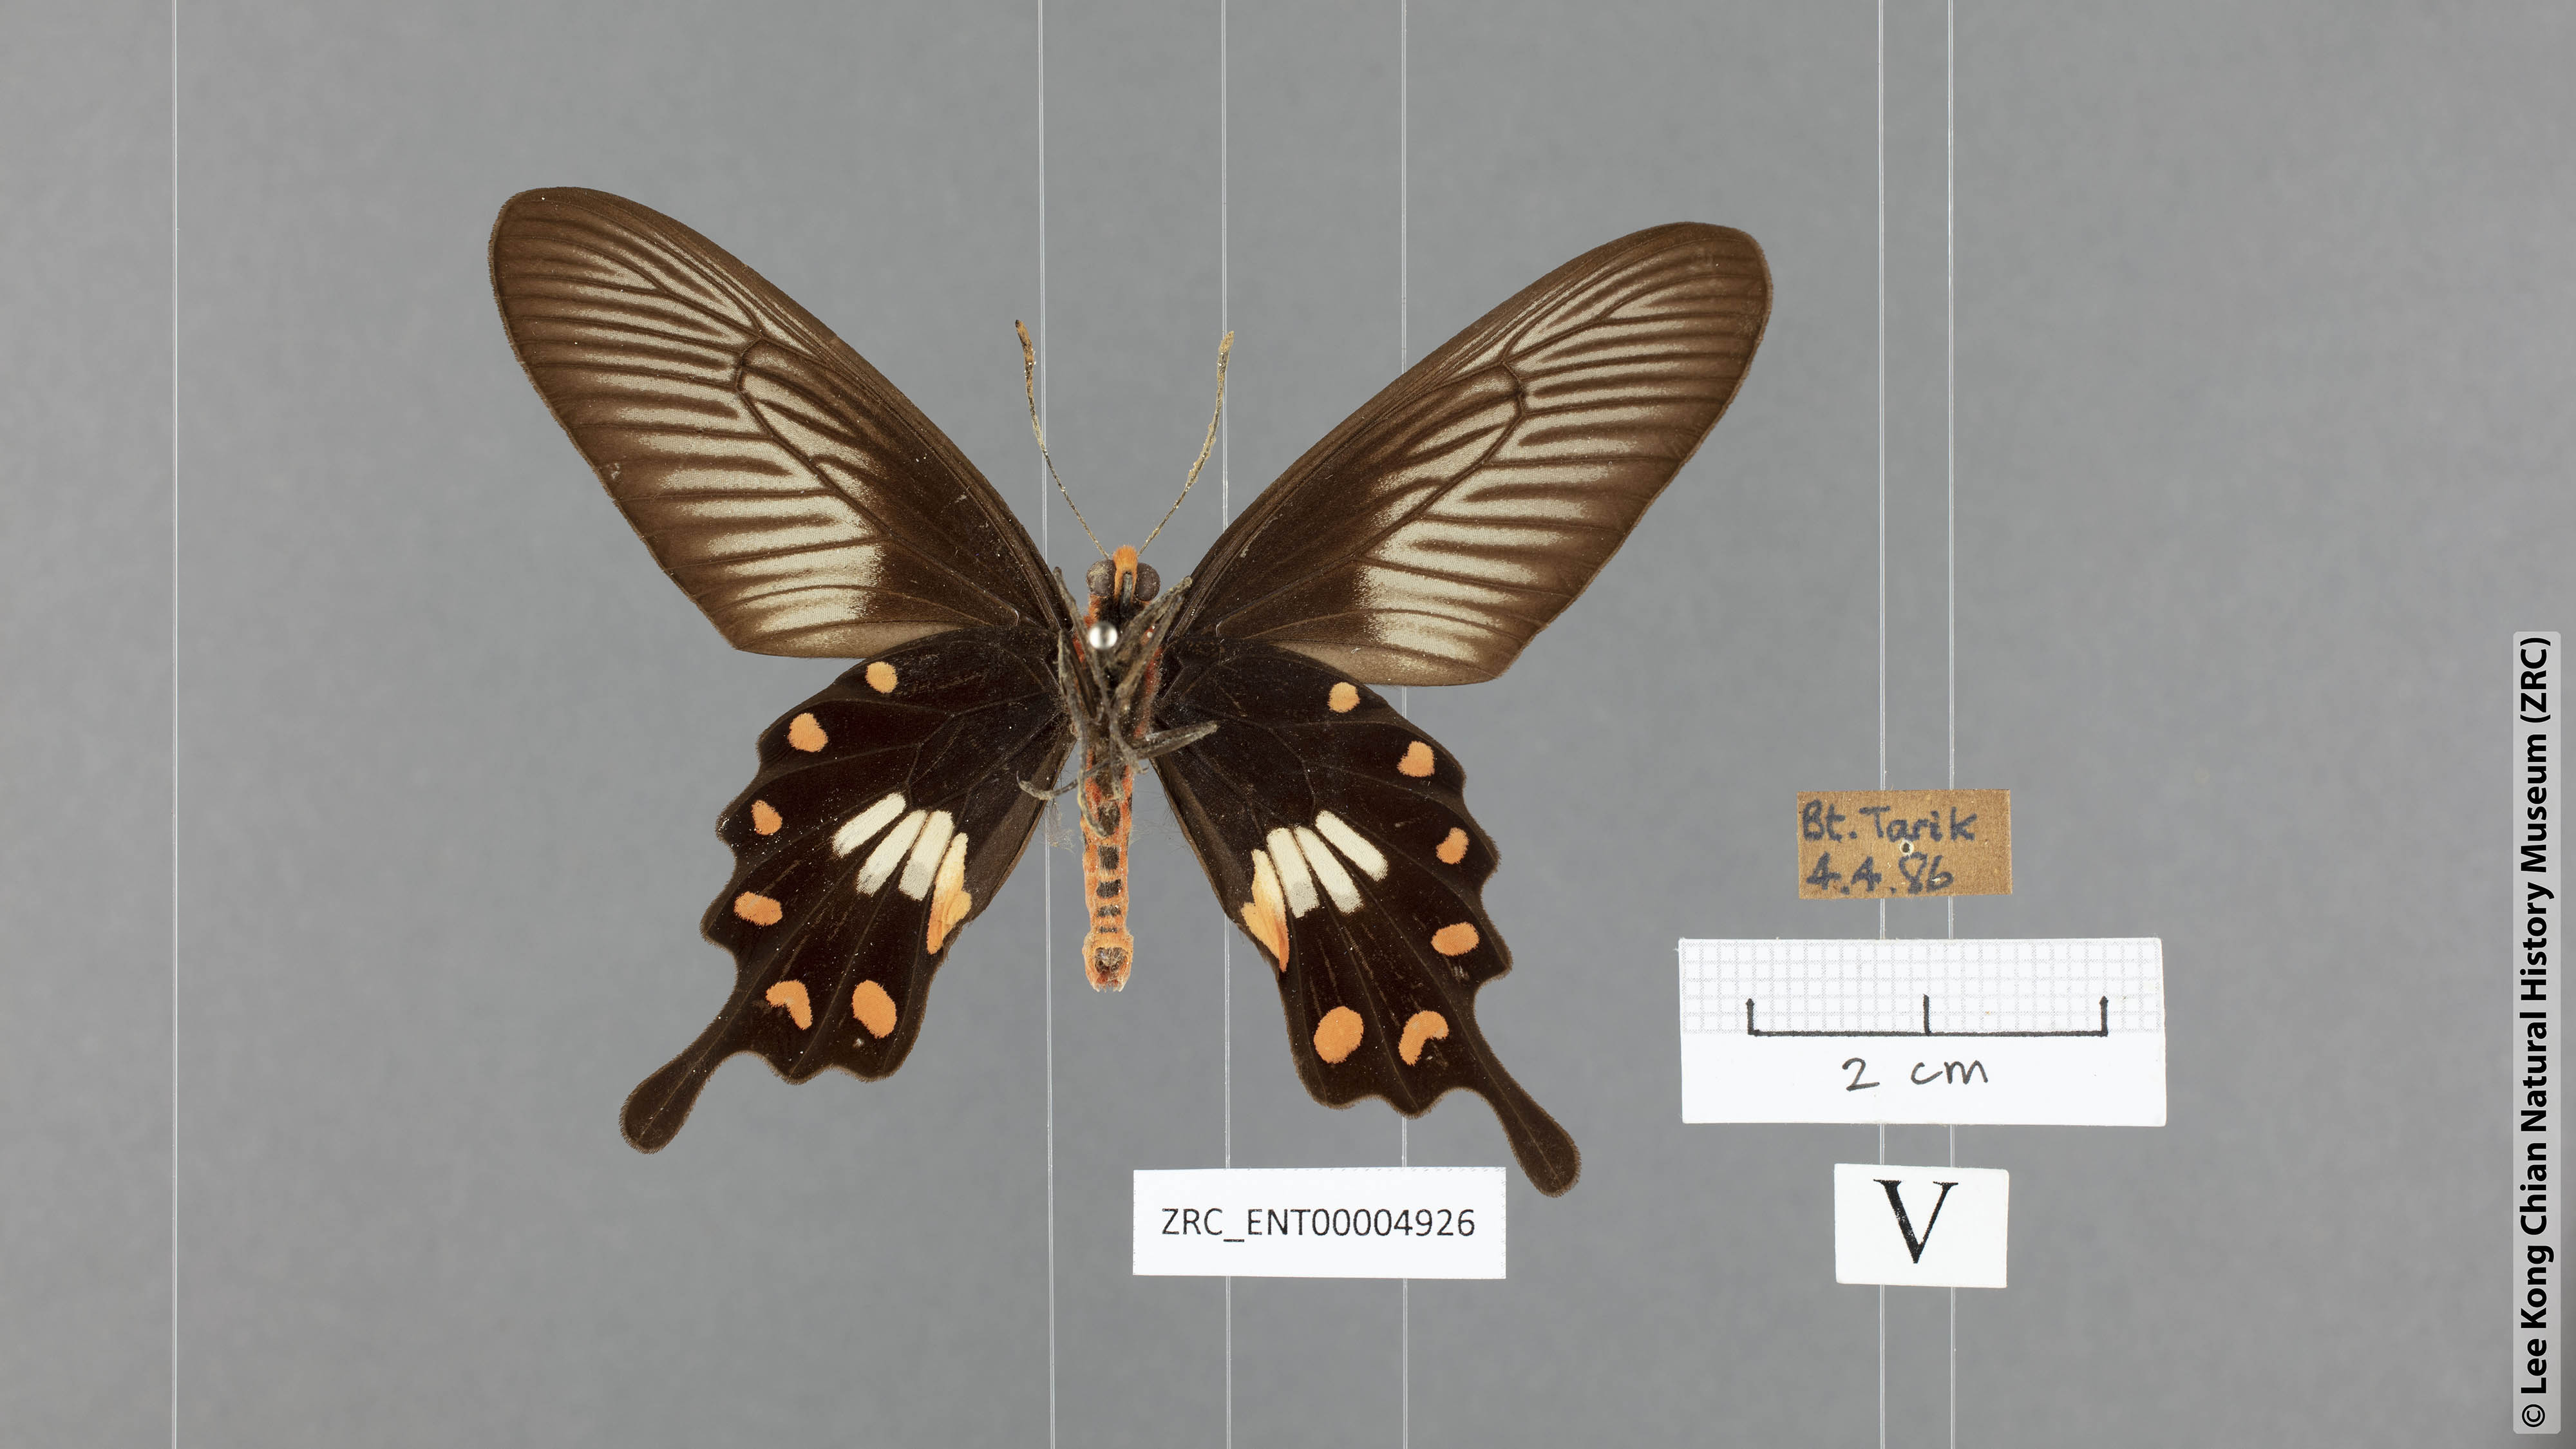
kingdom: Animalia
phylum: Arthropoda
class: Insecta
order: Lepidoptera
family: Papilionidae
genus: Pachliopta
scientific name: Pachliopta aristolochiae
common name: Common rose
